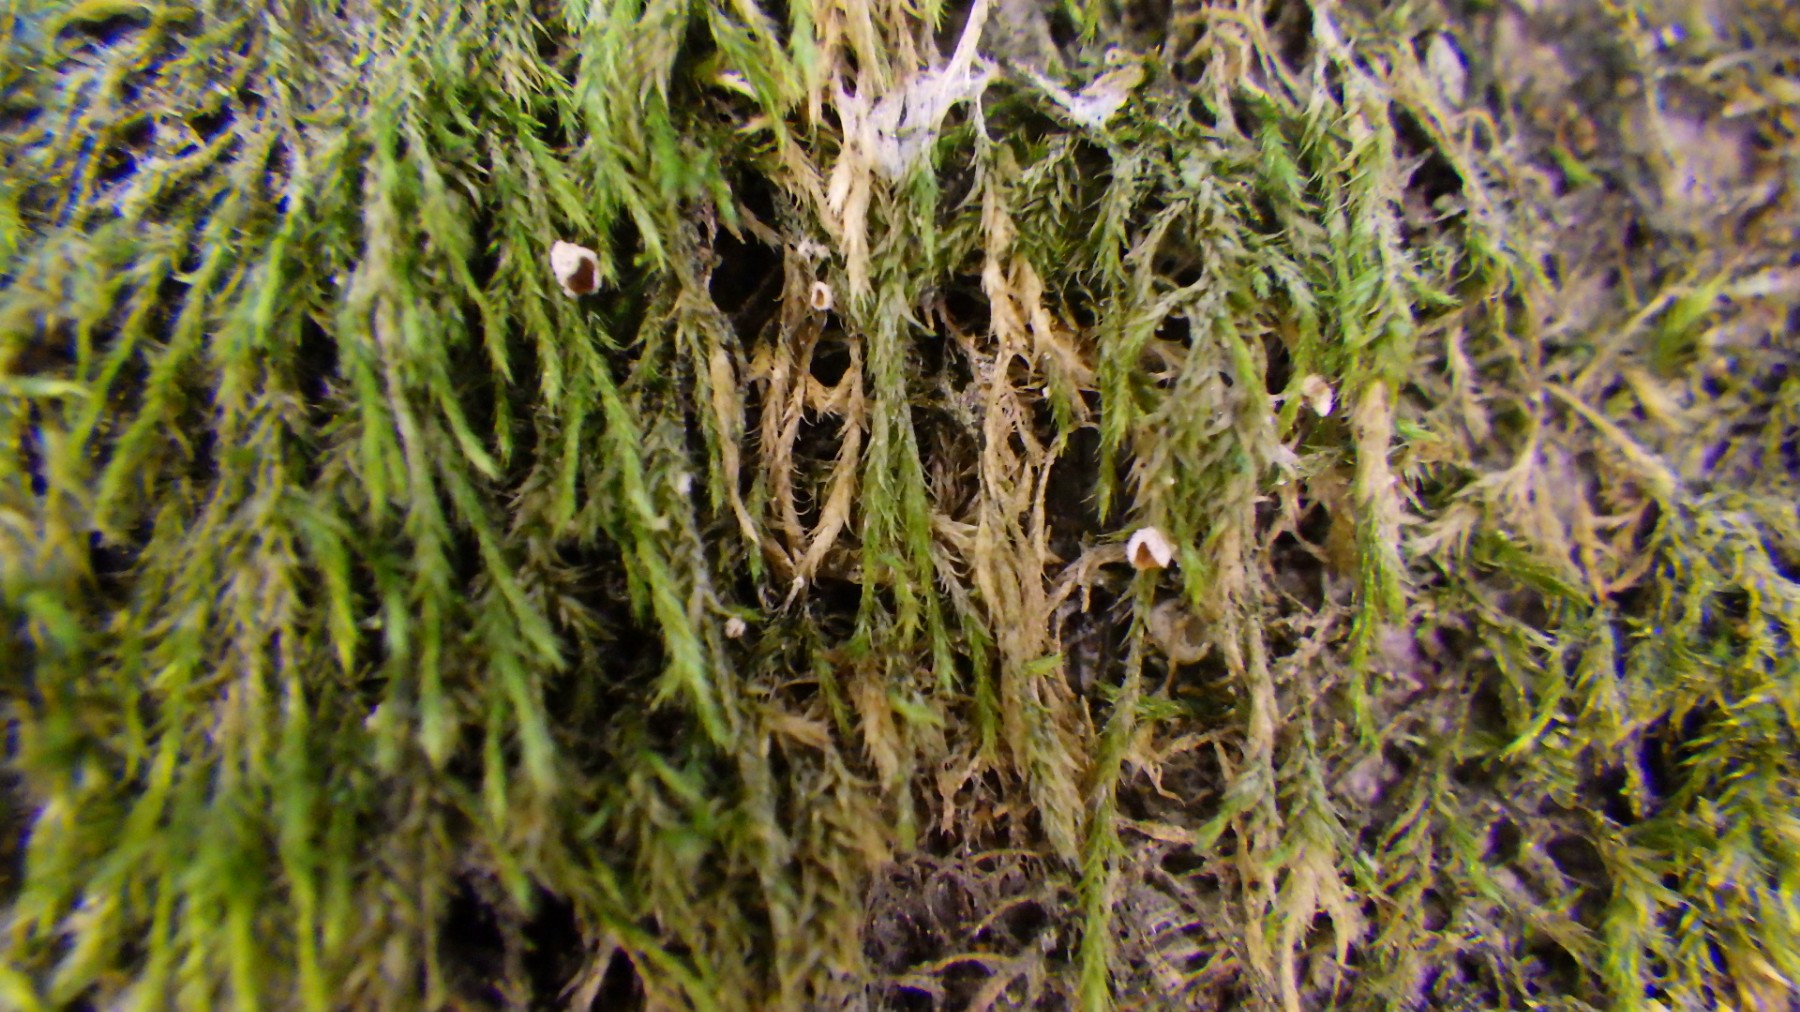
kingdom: Fungi
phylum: Basidiomycota
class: Agaricomycetes
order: Agaricales
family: Chromocyphellaceae
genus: Chromocyphella
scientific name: Chromocyphella muscicola
